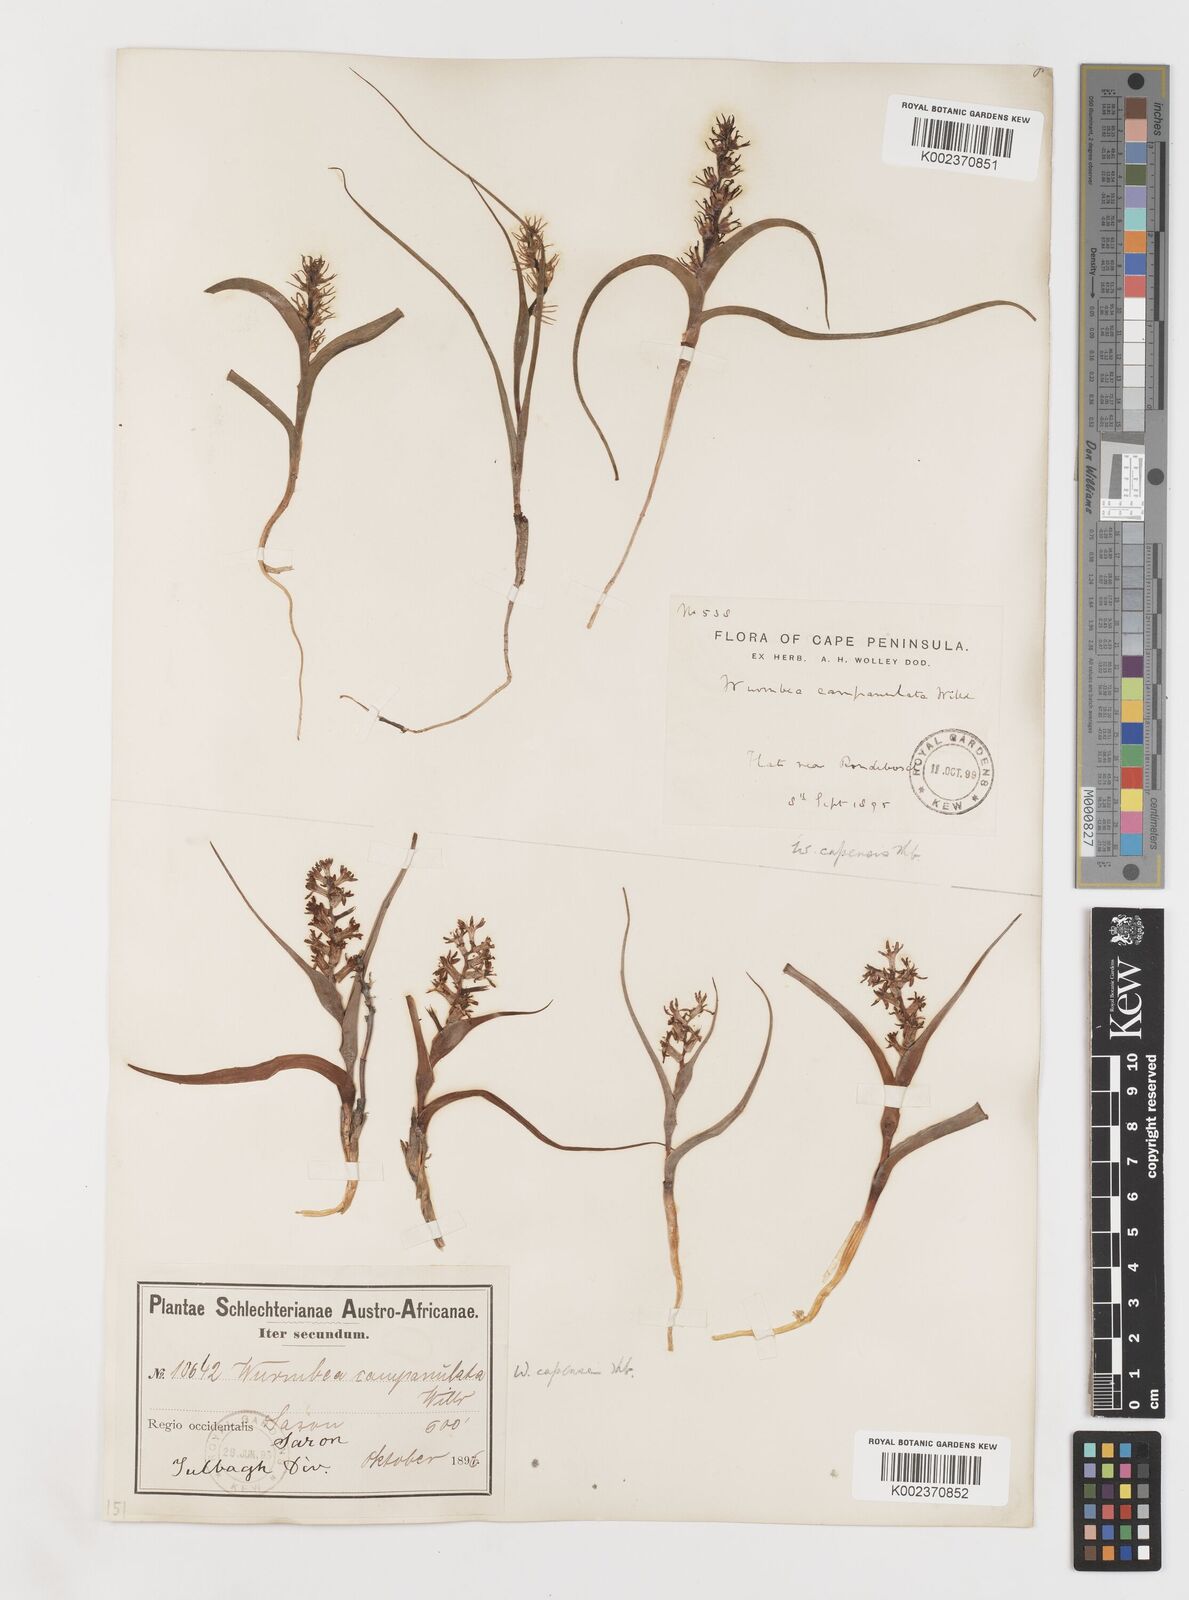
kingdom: Plantae
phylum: Tracheophyta
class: Liliopsida
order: Liliales
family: Colchicaceae
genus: Wurmbea
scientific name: Wurmbea capensis
